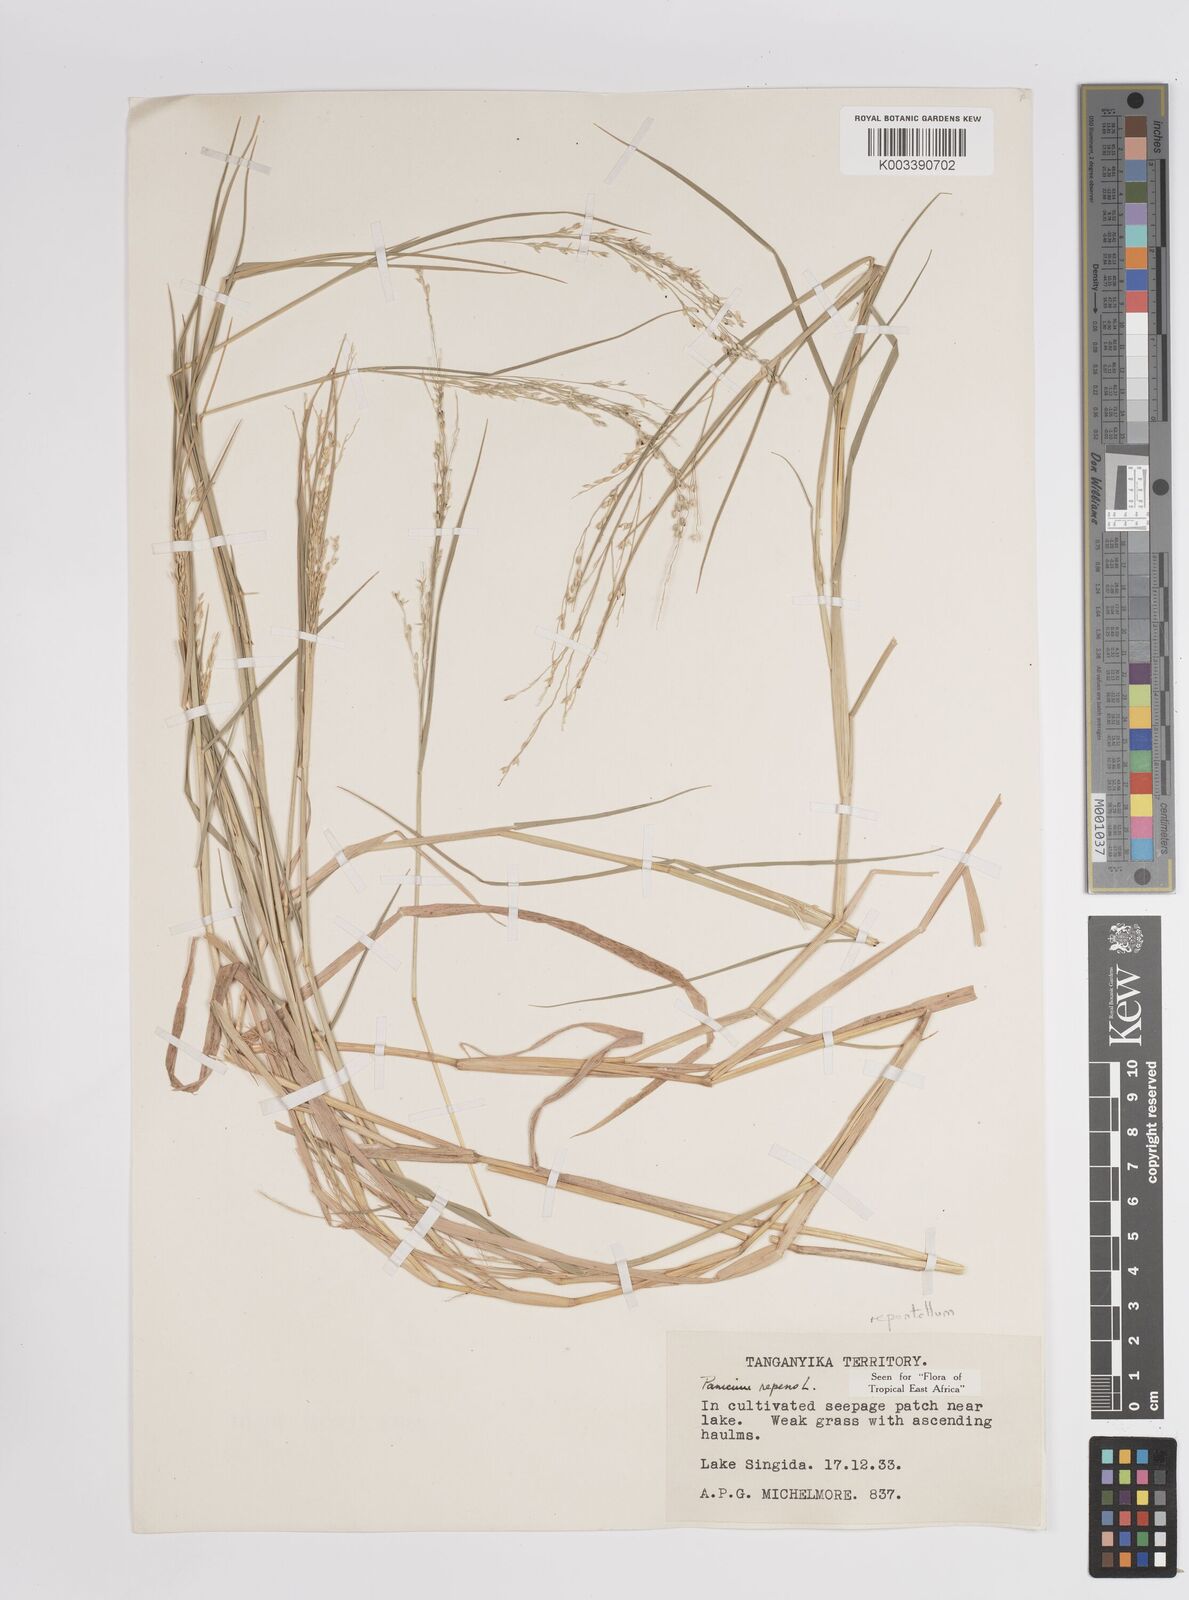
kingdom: Plantae
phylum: Tracheophyta
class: Liliopsida
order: Poales
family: Poaceae
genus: Panicum
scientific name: Panicum hygrocharis
